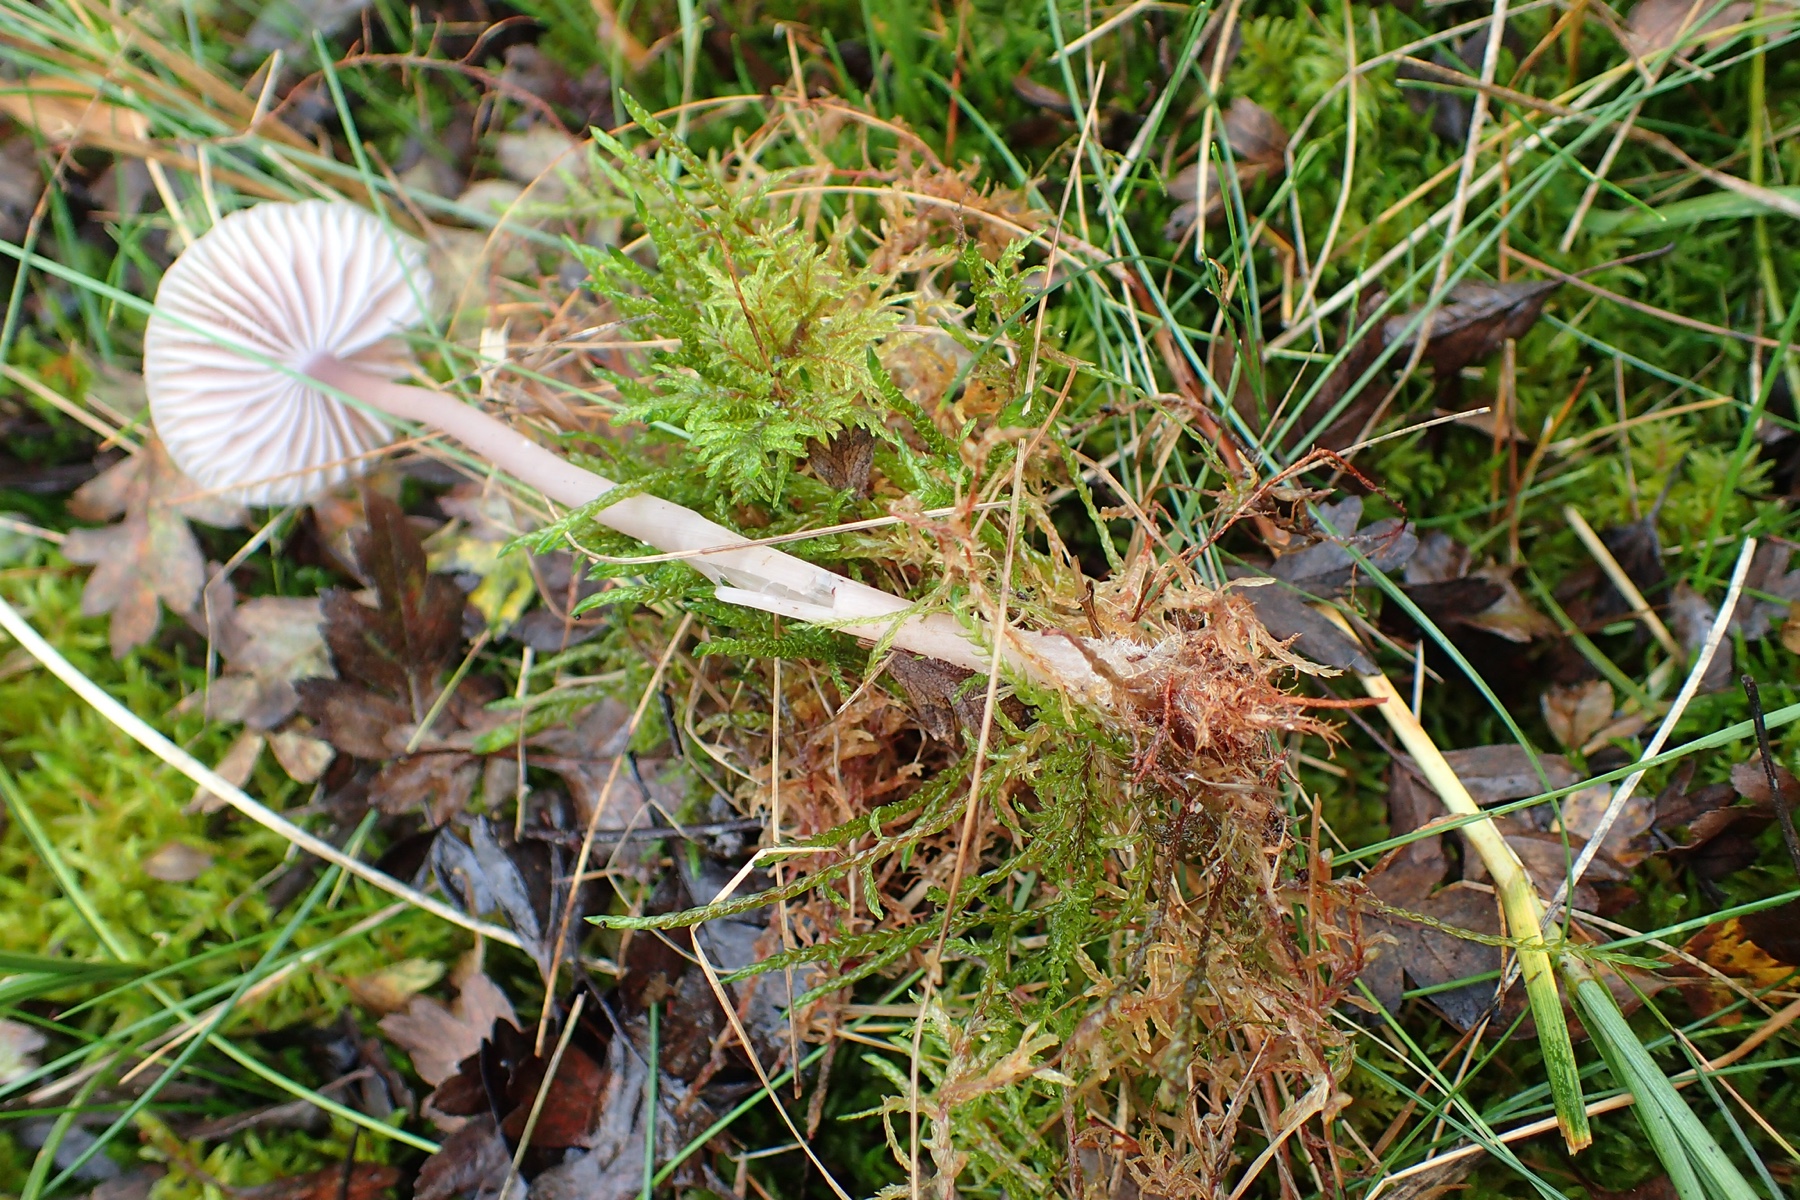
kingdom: Fungi
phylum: Basidiomycota
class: Agaricomycetes
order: Agaricales
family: Mycenaceae
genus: Mycena
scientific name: Mycena
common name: huesvamp
